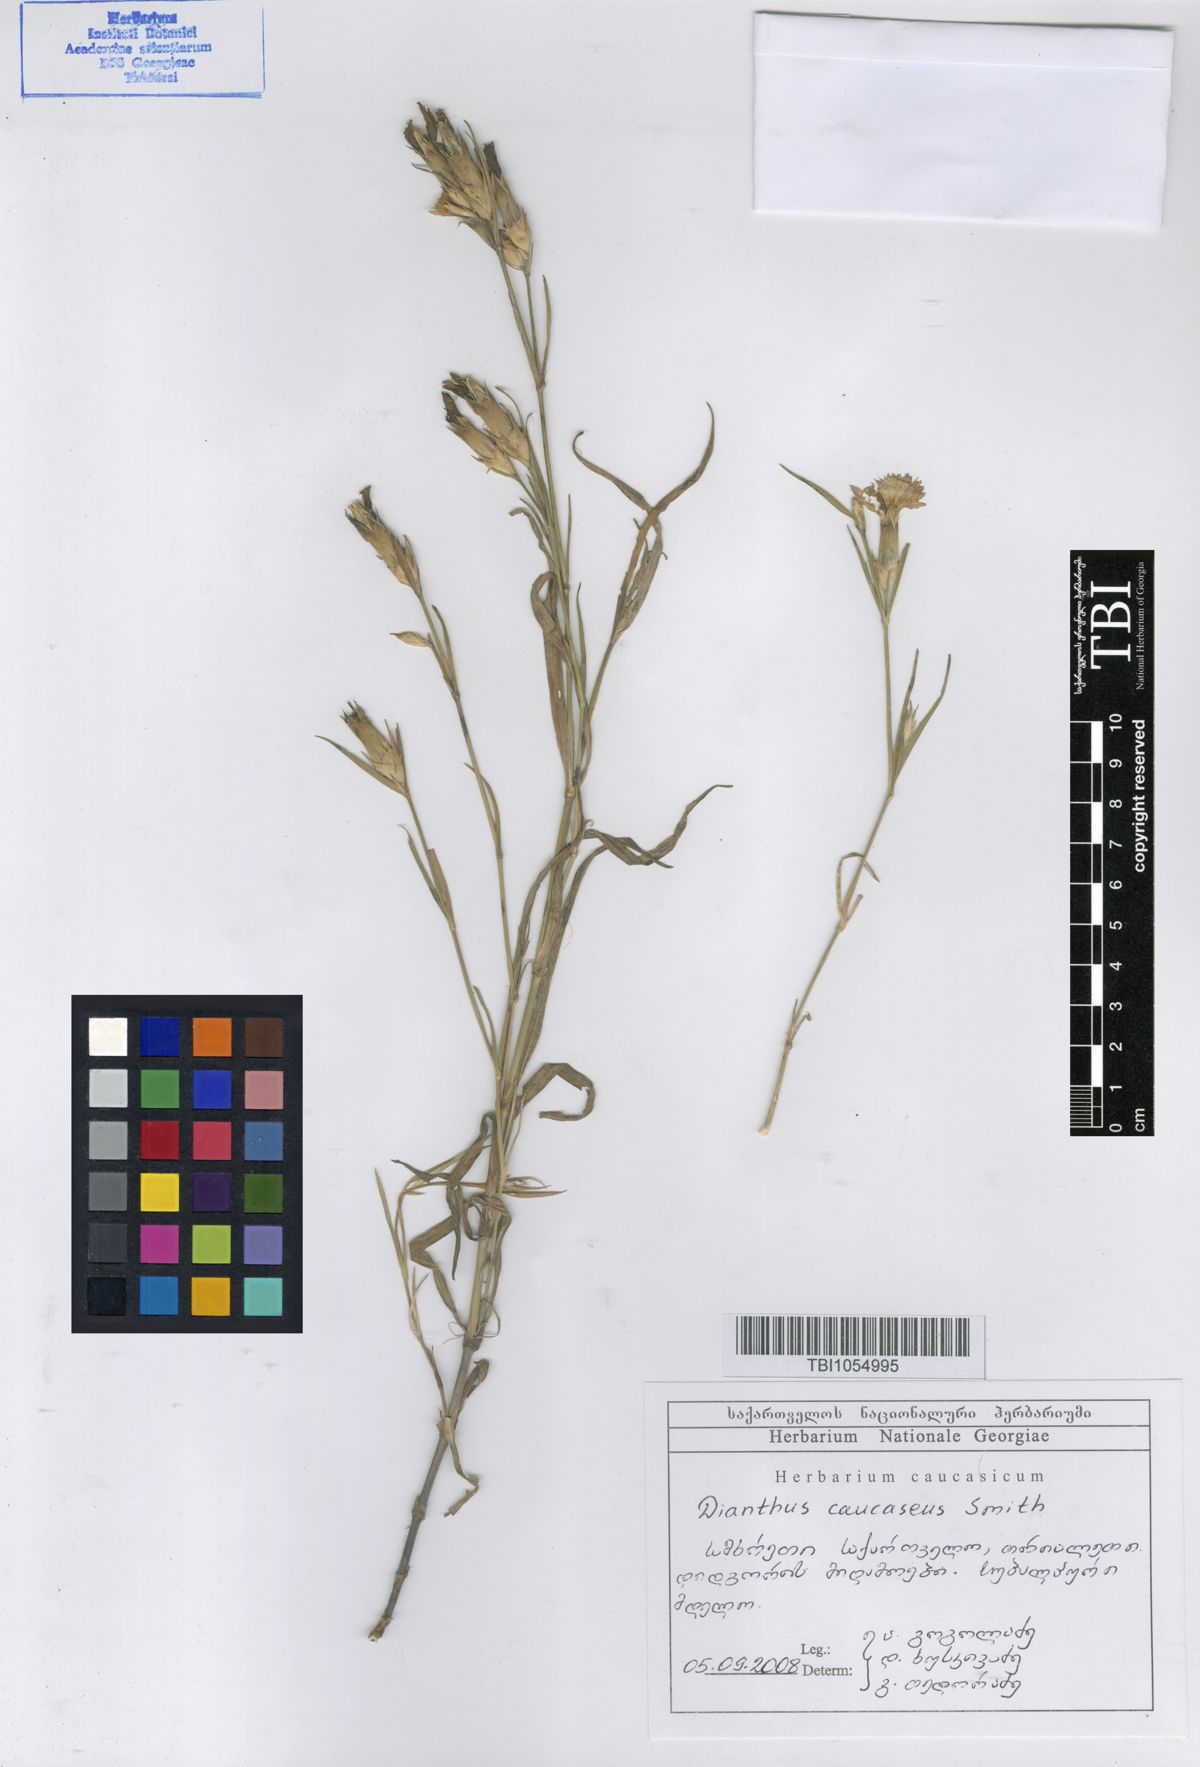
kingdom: Plantae
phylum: Tracheophyta
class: Magnoliopsida
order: Caryophyllales
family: Caryophyllaceae
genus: Dianthus
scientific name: Dianthus caucaseus
